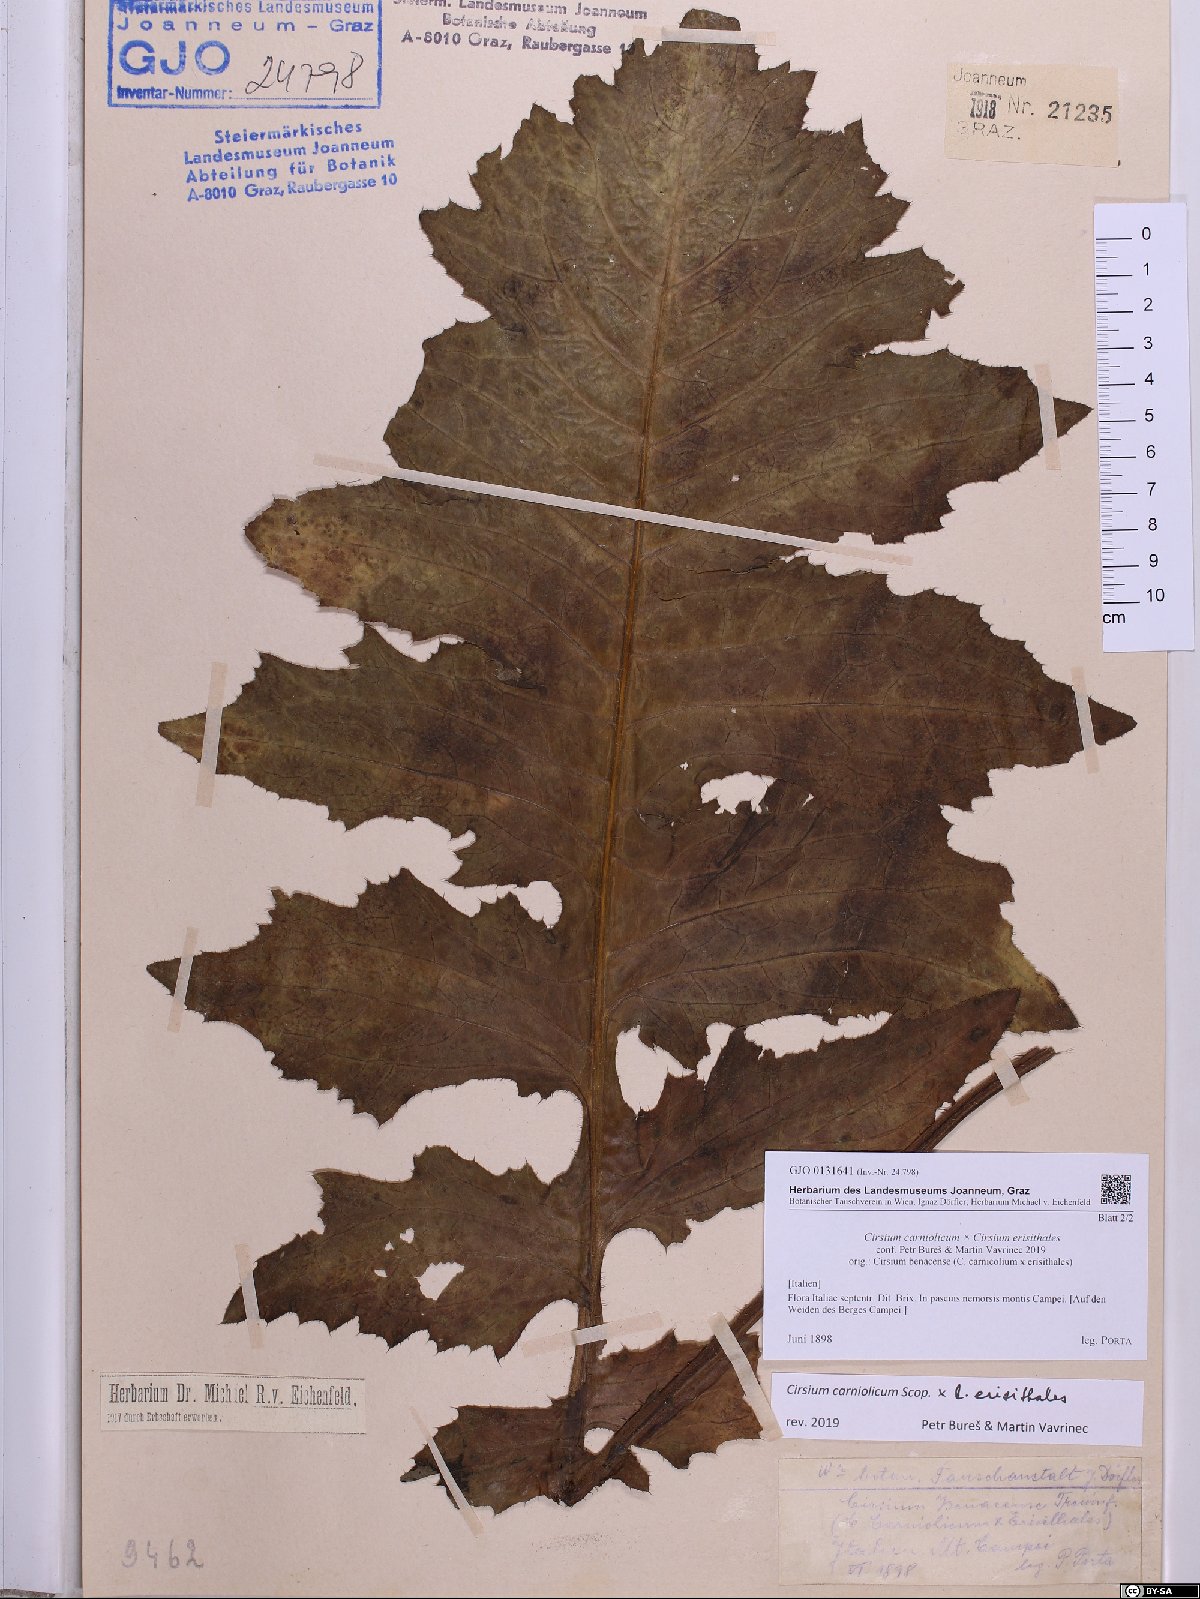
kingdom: Plantae
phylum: Tracheophyta
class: Magnoliopsida
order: Asterales
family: Asteraceae
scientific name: Asteraceae
